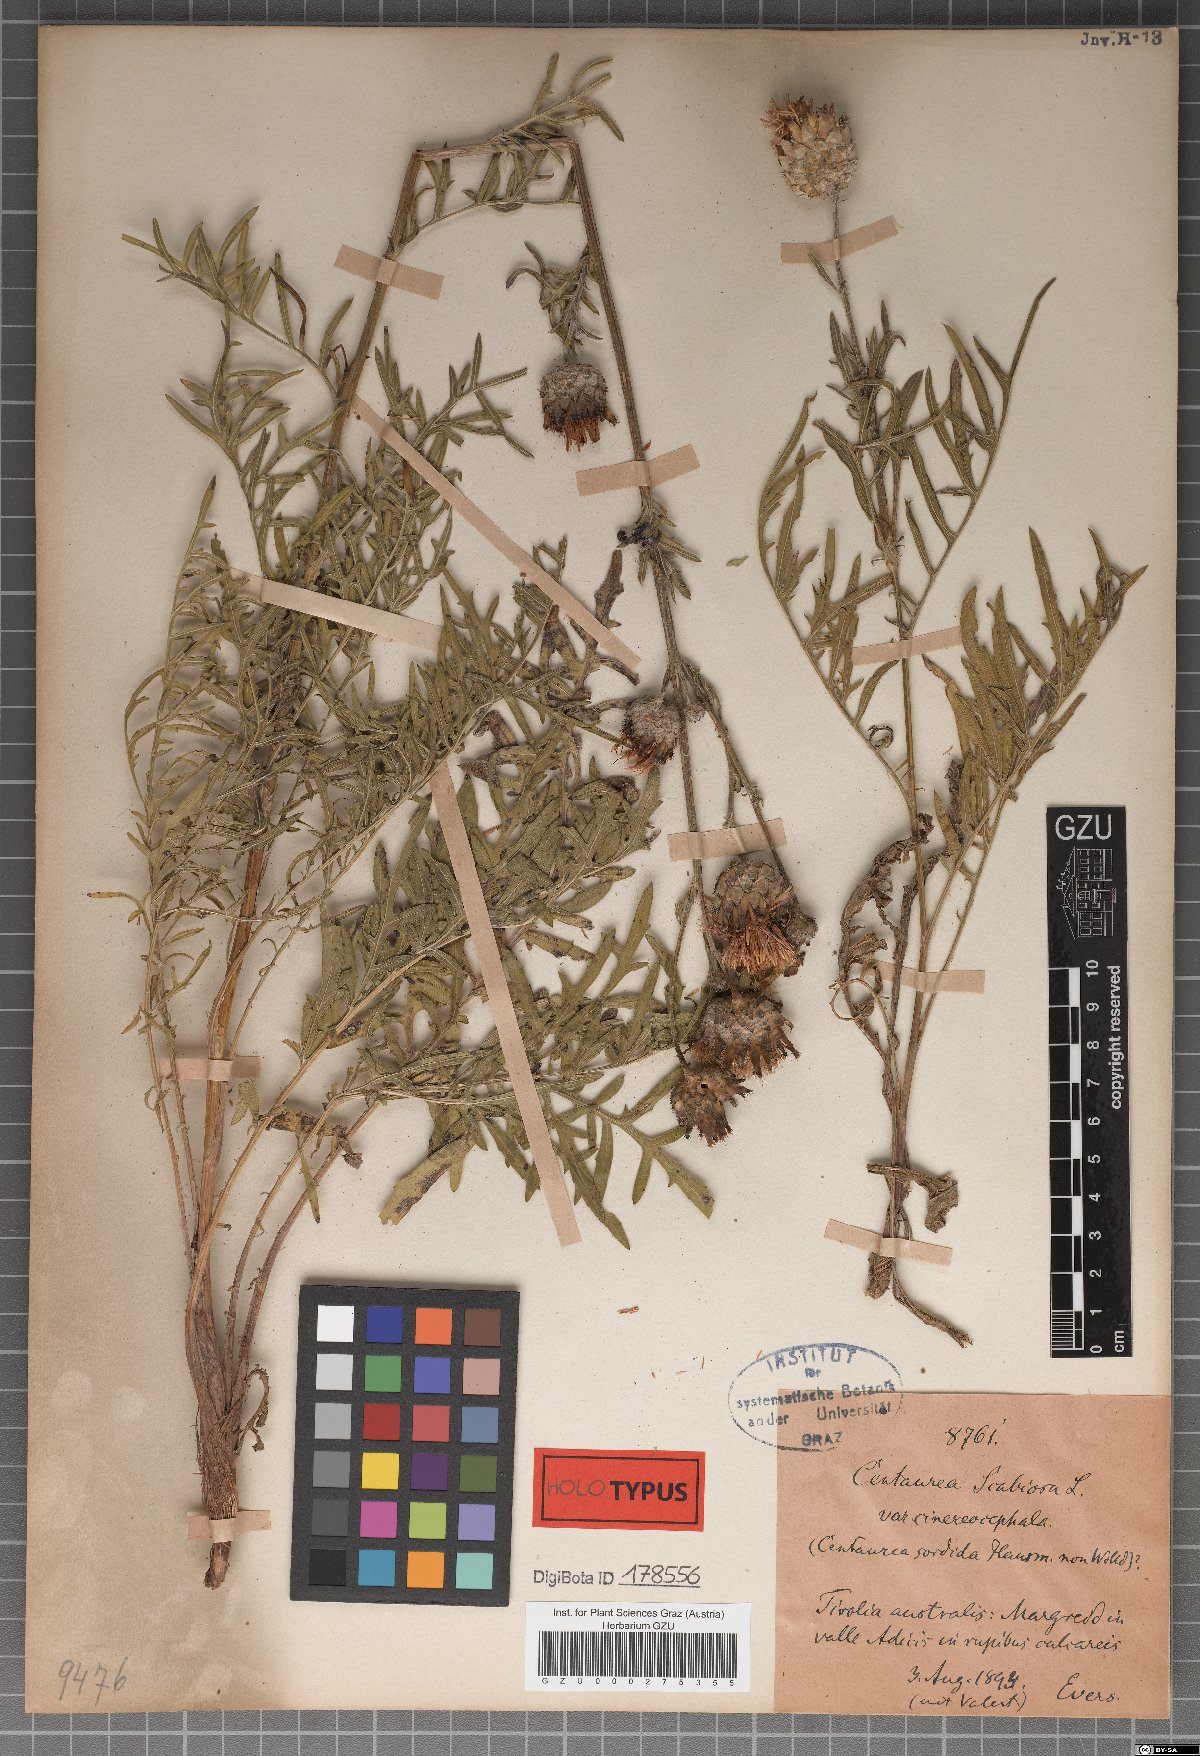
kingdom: Plantae
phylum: Tracheophyta
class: Magnoliopsida
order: Asterales
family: Asteraceae
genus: Centaurea
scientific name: Centaurea scabiosa
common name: Greater knapweed
